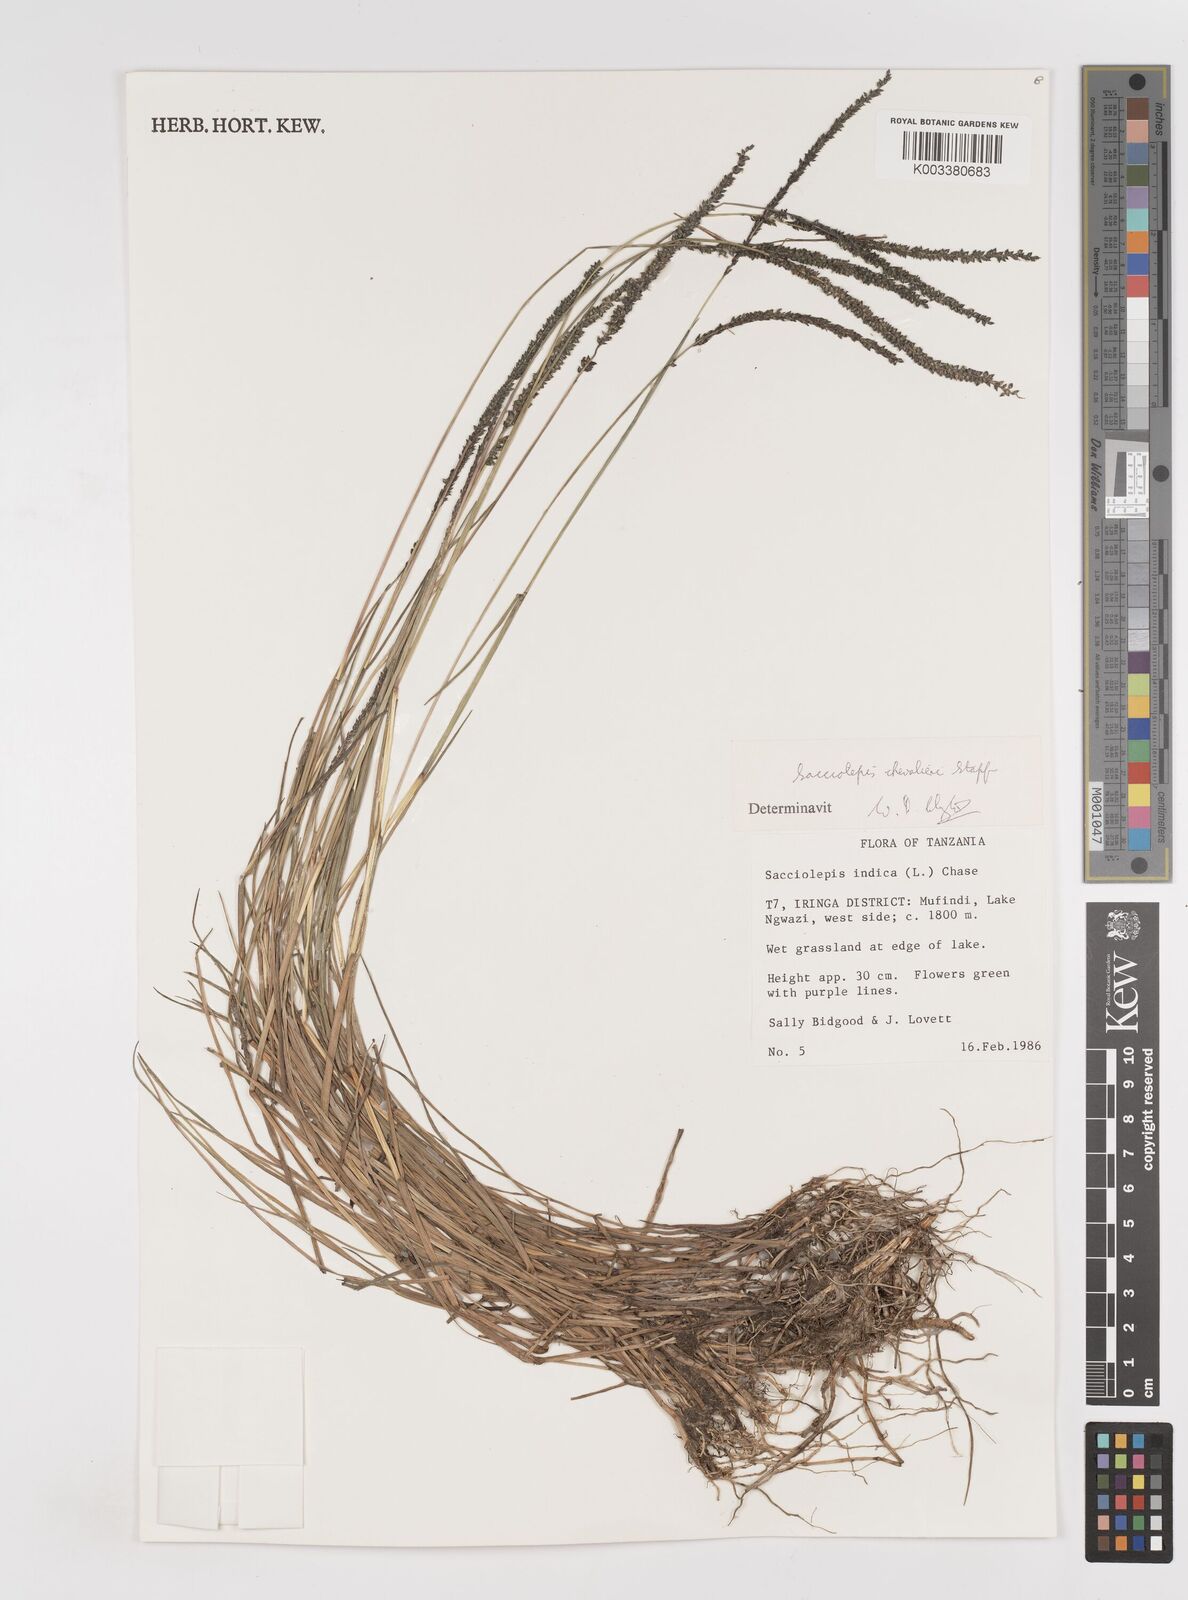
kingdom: Plantae
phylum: Tracheophyta
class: Liliopsida
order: Poales
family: Poaceae
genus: Sacciolepis
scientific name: Sacciolepis chevalieri
